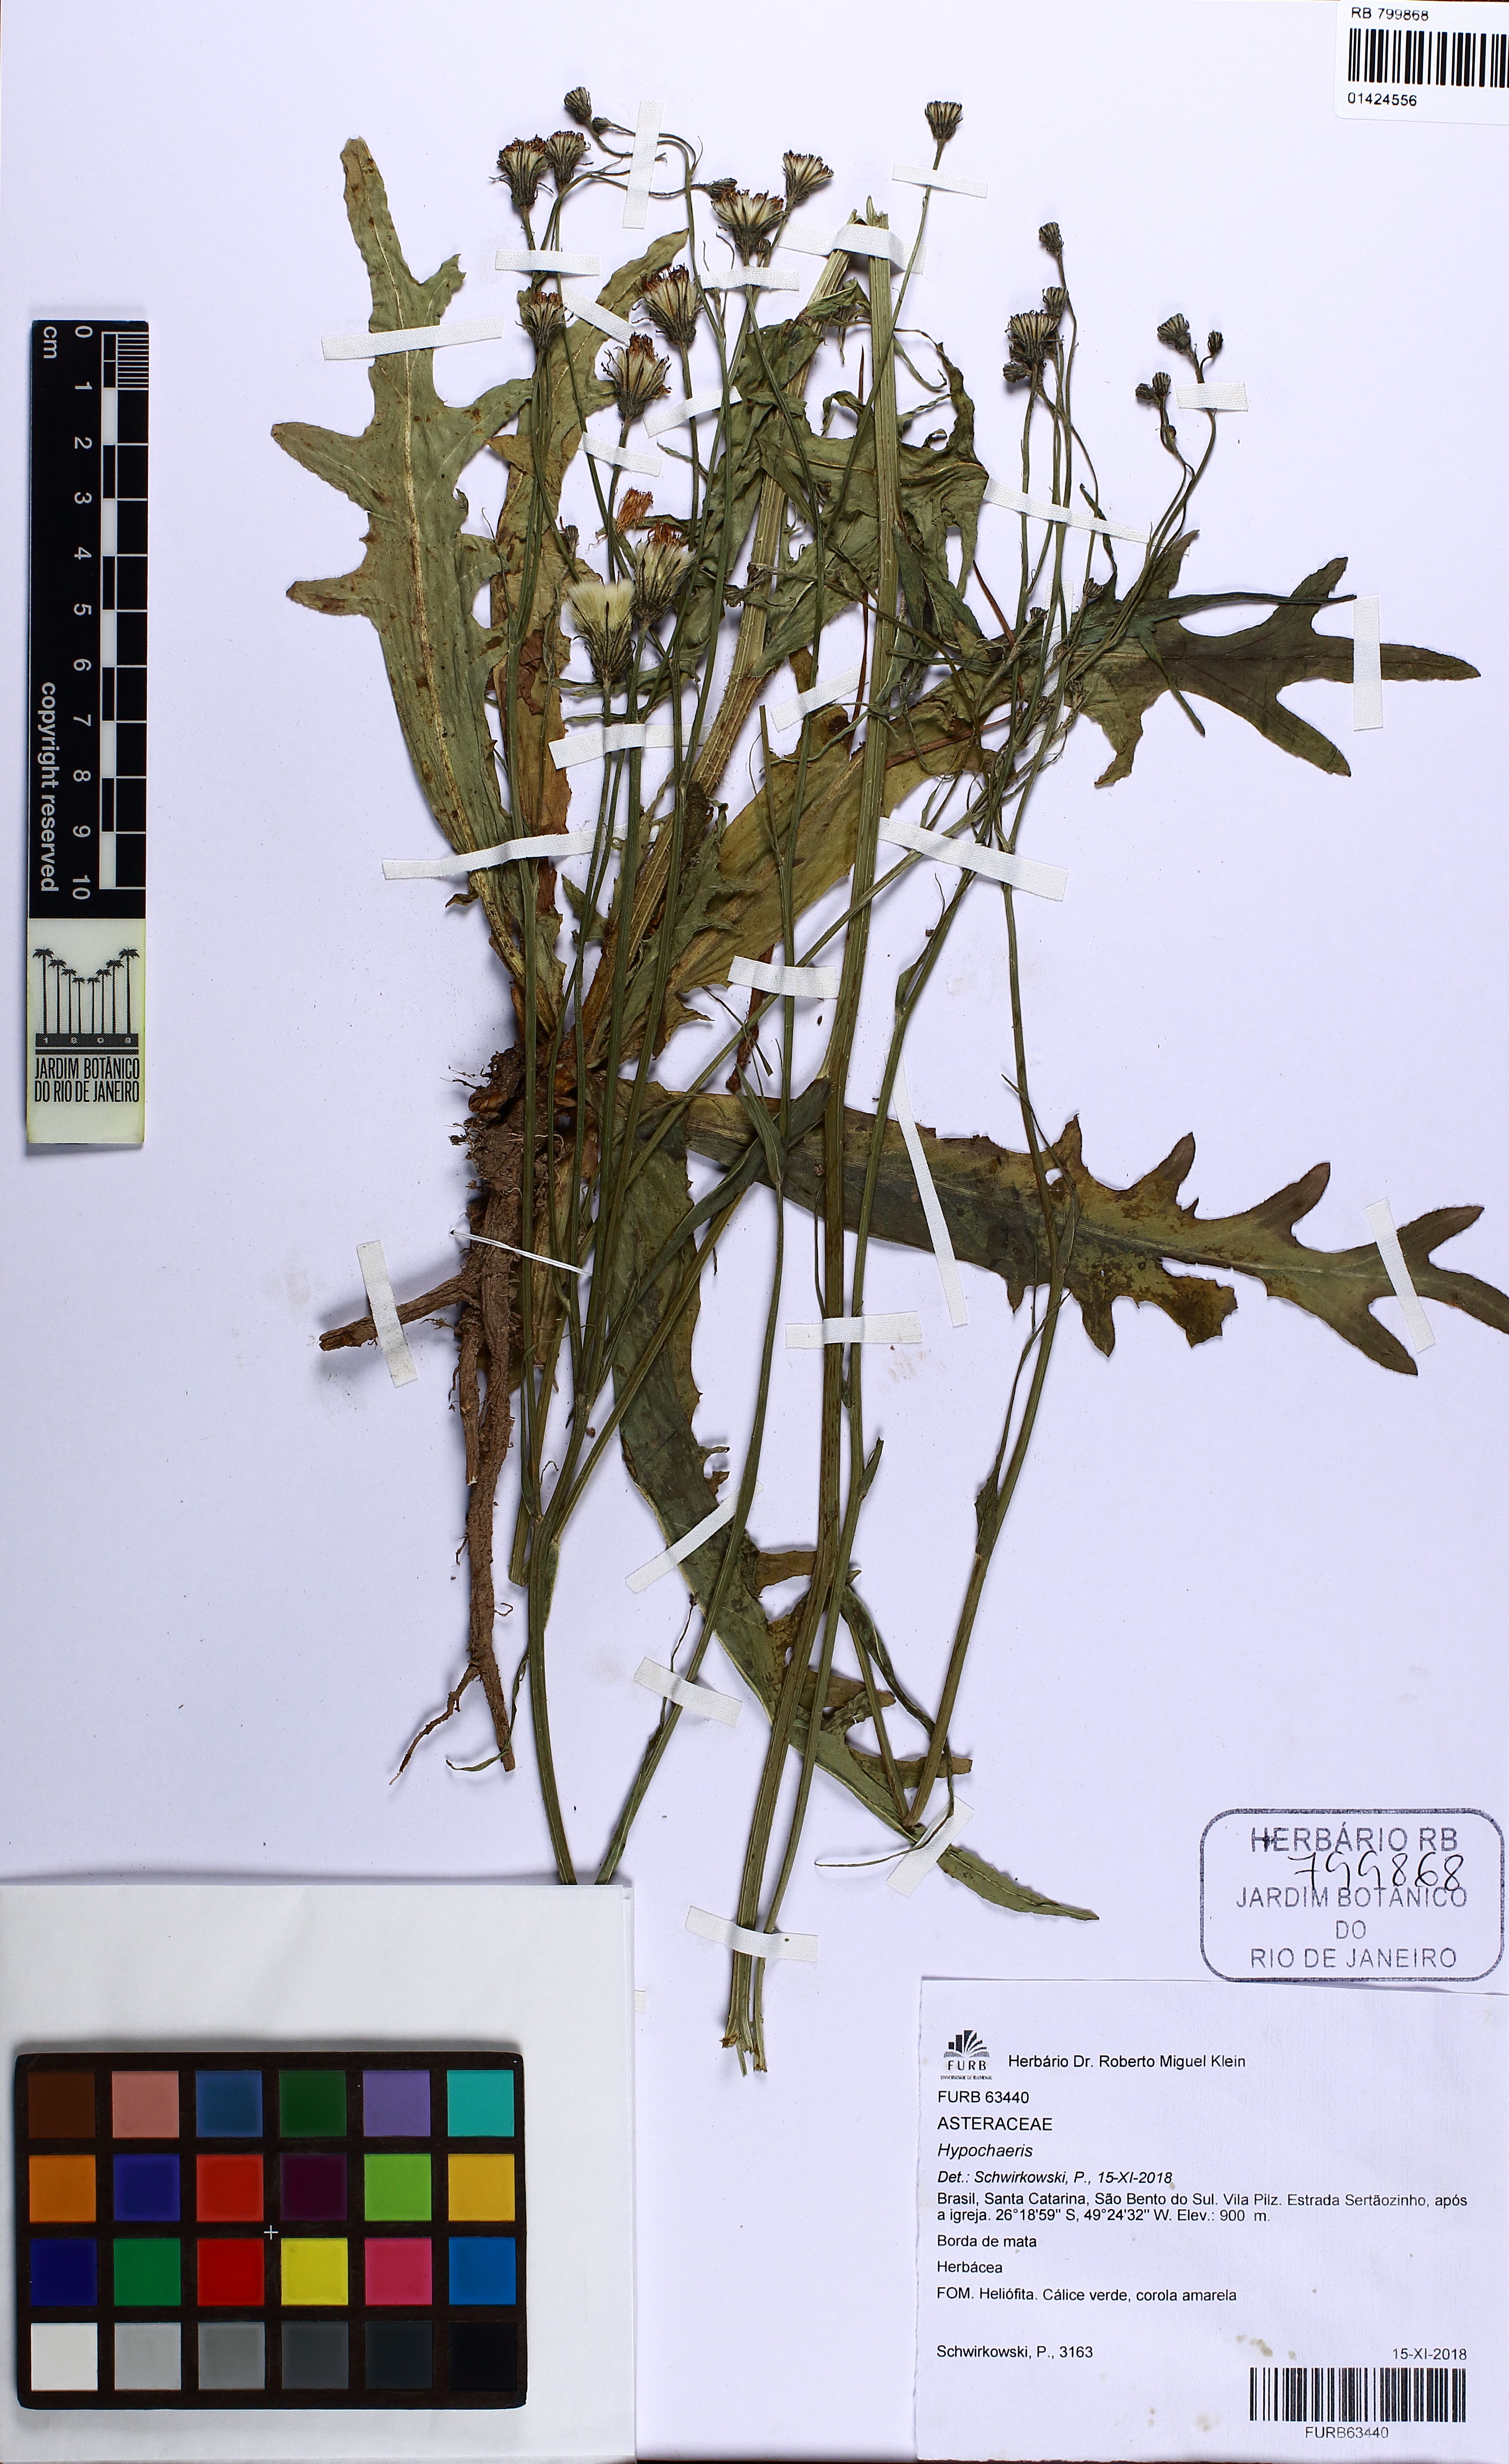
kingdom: Plantae
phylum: Tracheophyta
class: Magnoliopsida
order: Asterales
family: Asteraceae
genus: Hypochaeris
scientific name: Hypochaeris
